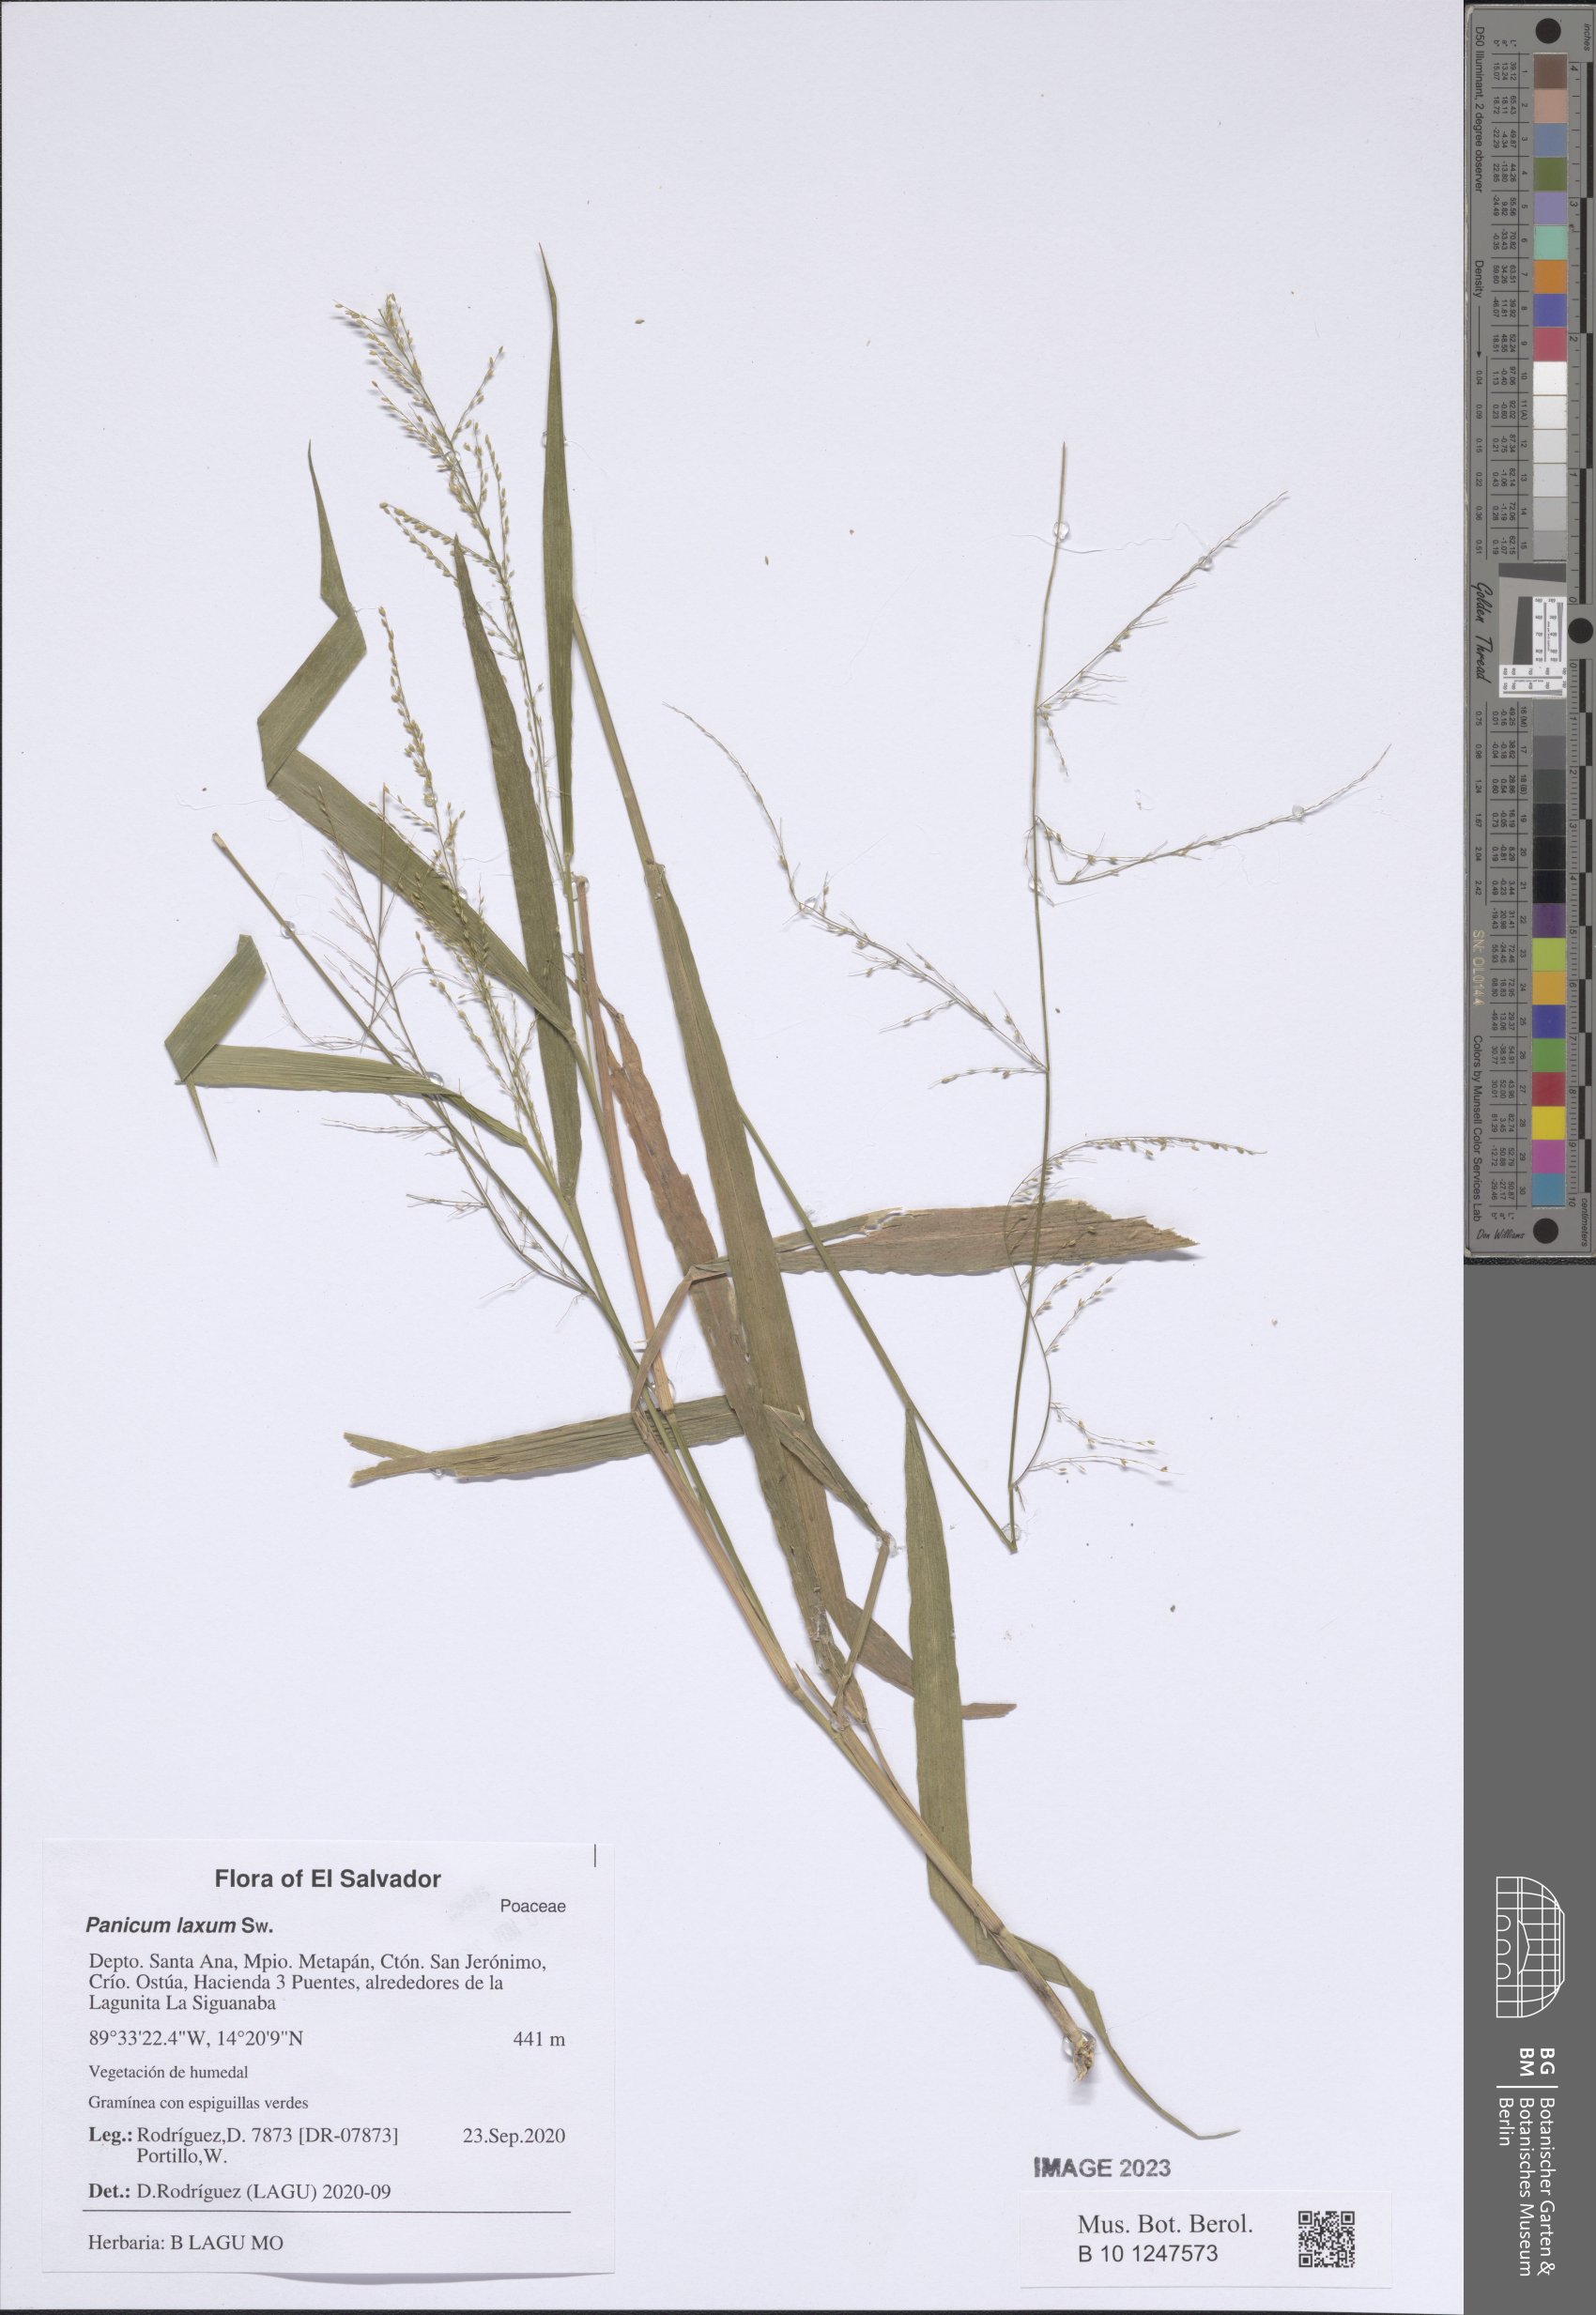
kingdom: Plantae
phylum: Tracheophyta
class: Liliopsida
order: Poales
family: Poaceae
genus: Steinchisma
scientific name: Steinchisma laxum
